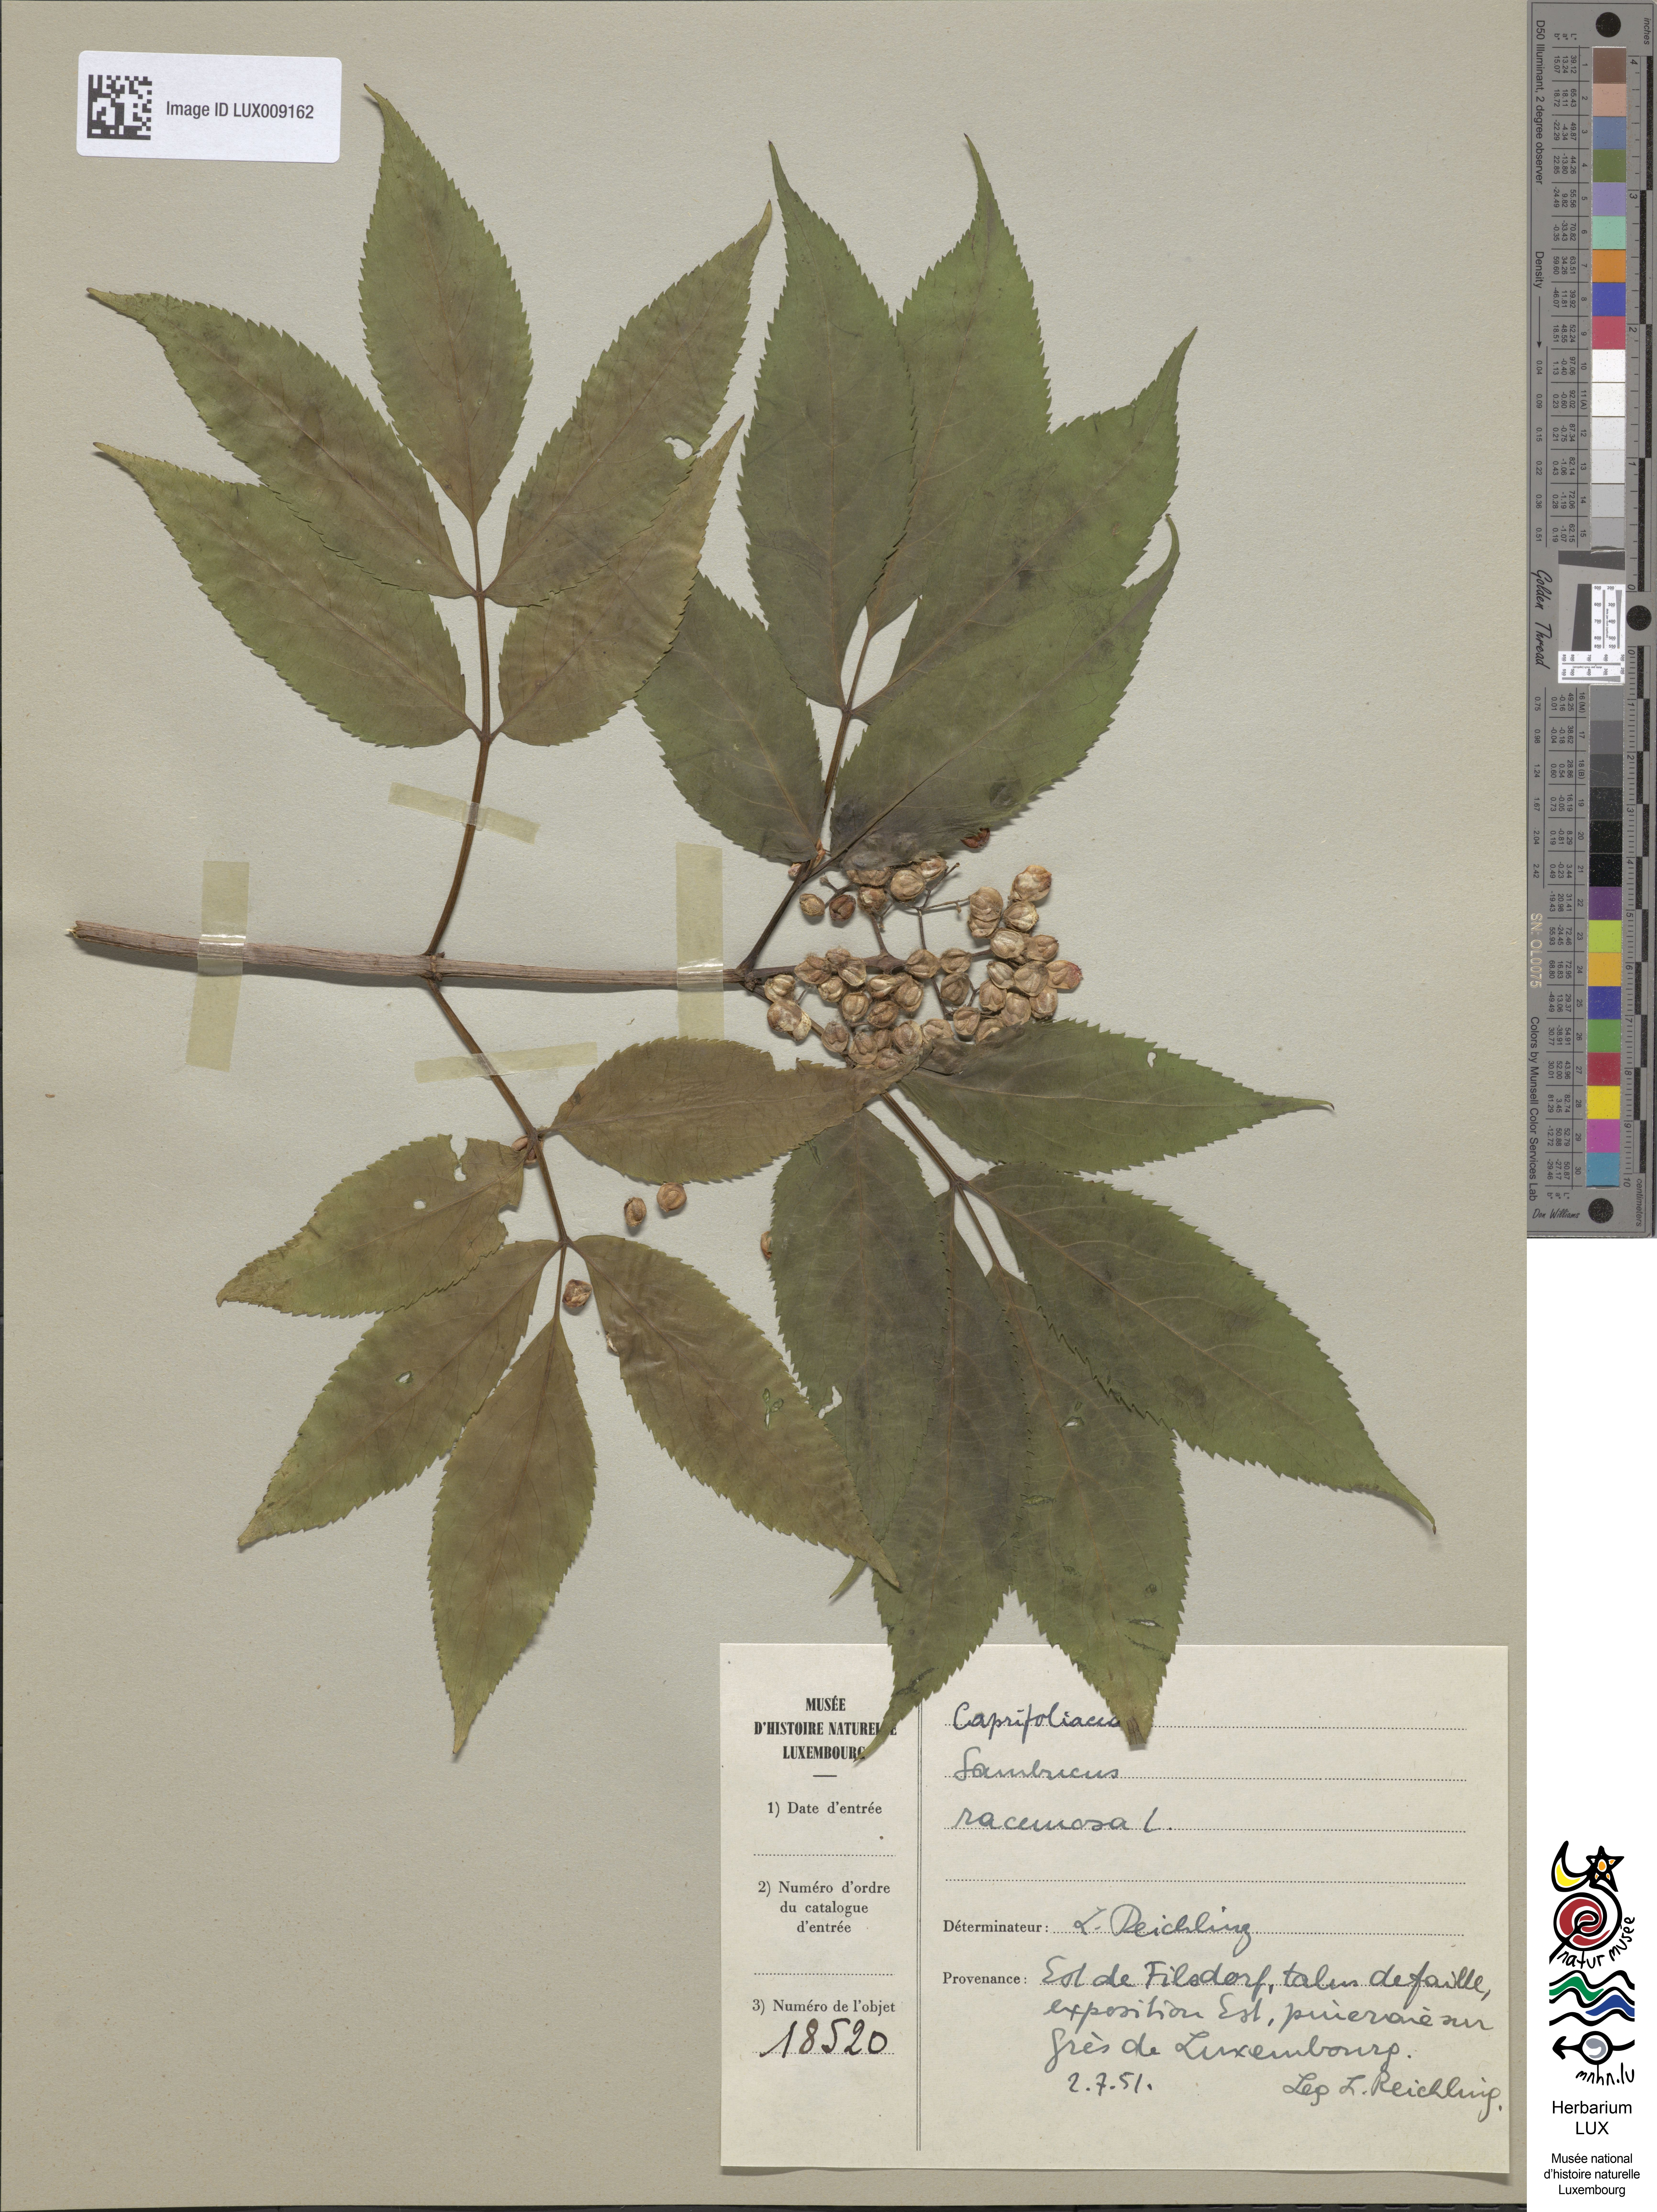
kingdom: Plantae
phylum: Tracheophyta
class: Magnoliopsida
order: Dipsacales
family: Viburnaceae
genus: Sambucus
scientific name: Sambucus racemosa
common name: Red-berried elder
